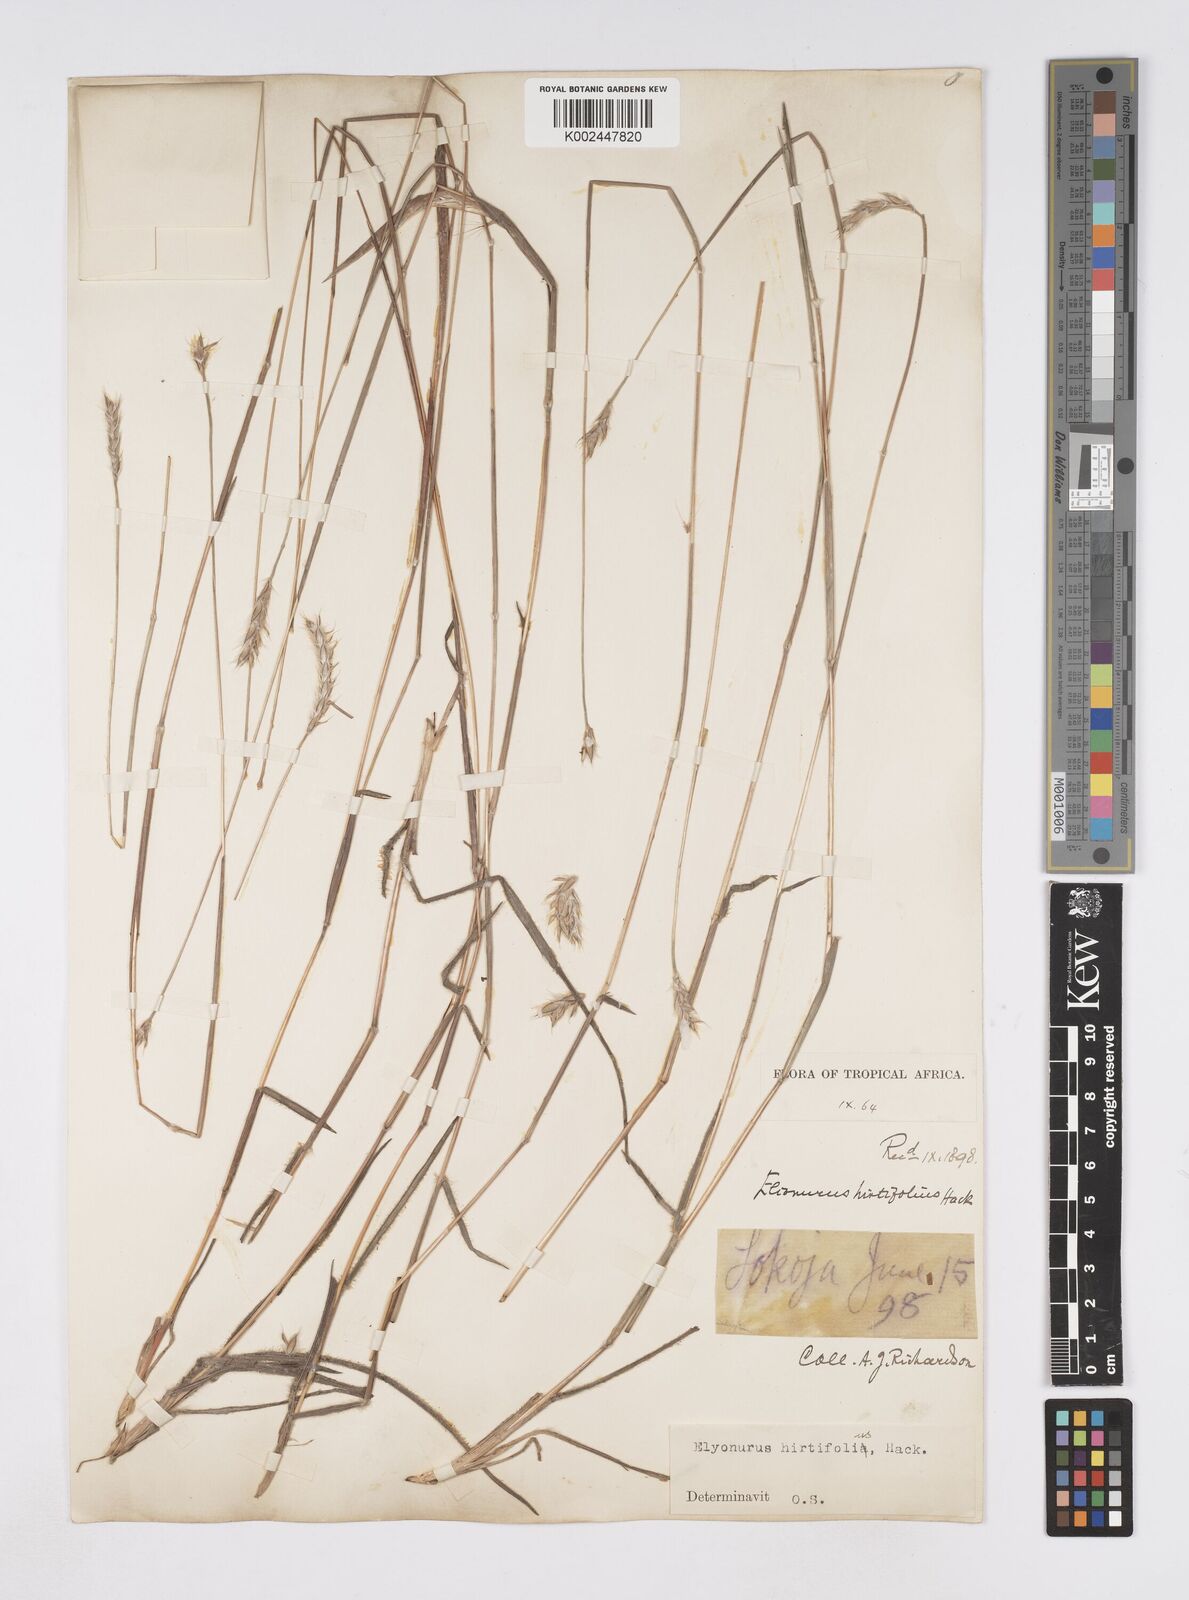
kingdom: Plantae
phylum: Tracheophyta
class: Liliopsida
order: Poales
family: Poaceae
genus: Elionurus
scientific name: Elionurus hirtifolius
